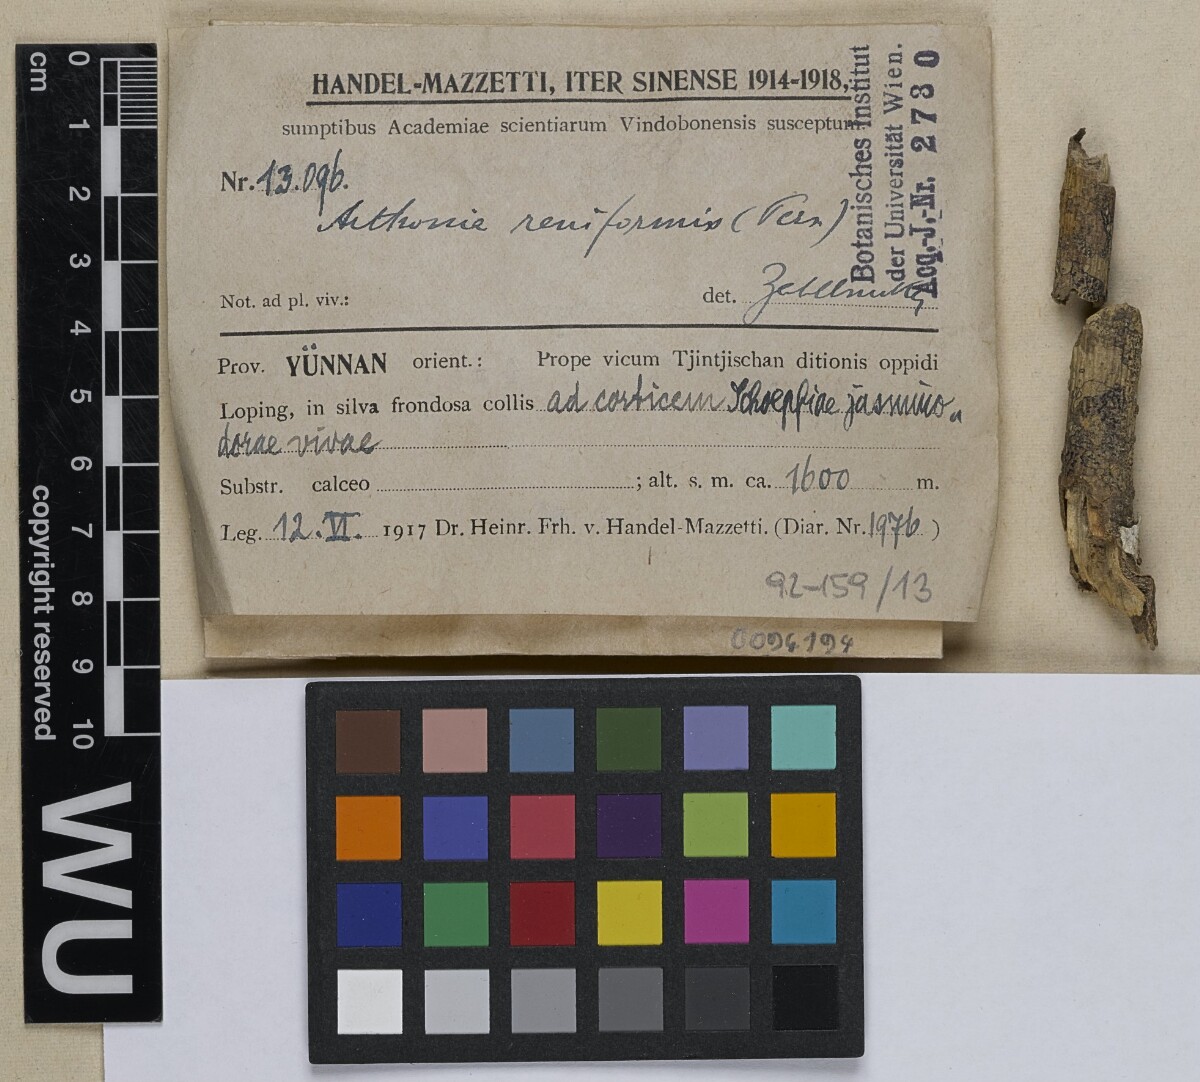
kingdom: Fungi
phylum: Ascomycota
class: Arthoniomycetes
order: Arthoniales
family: Arthoniaceae
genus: Arthonia
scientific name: Arthonia reniformis
